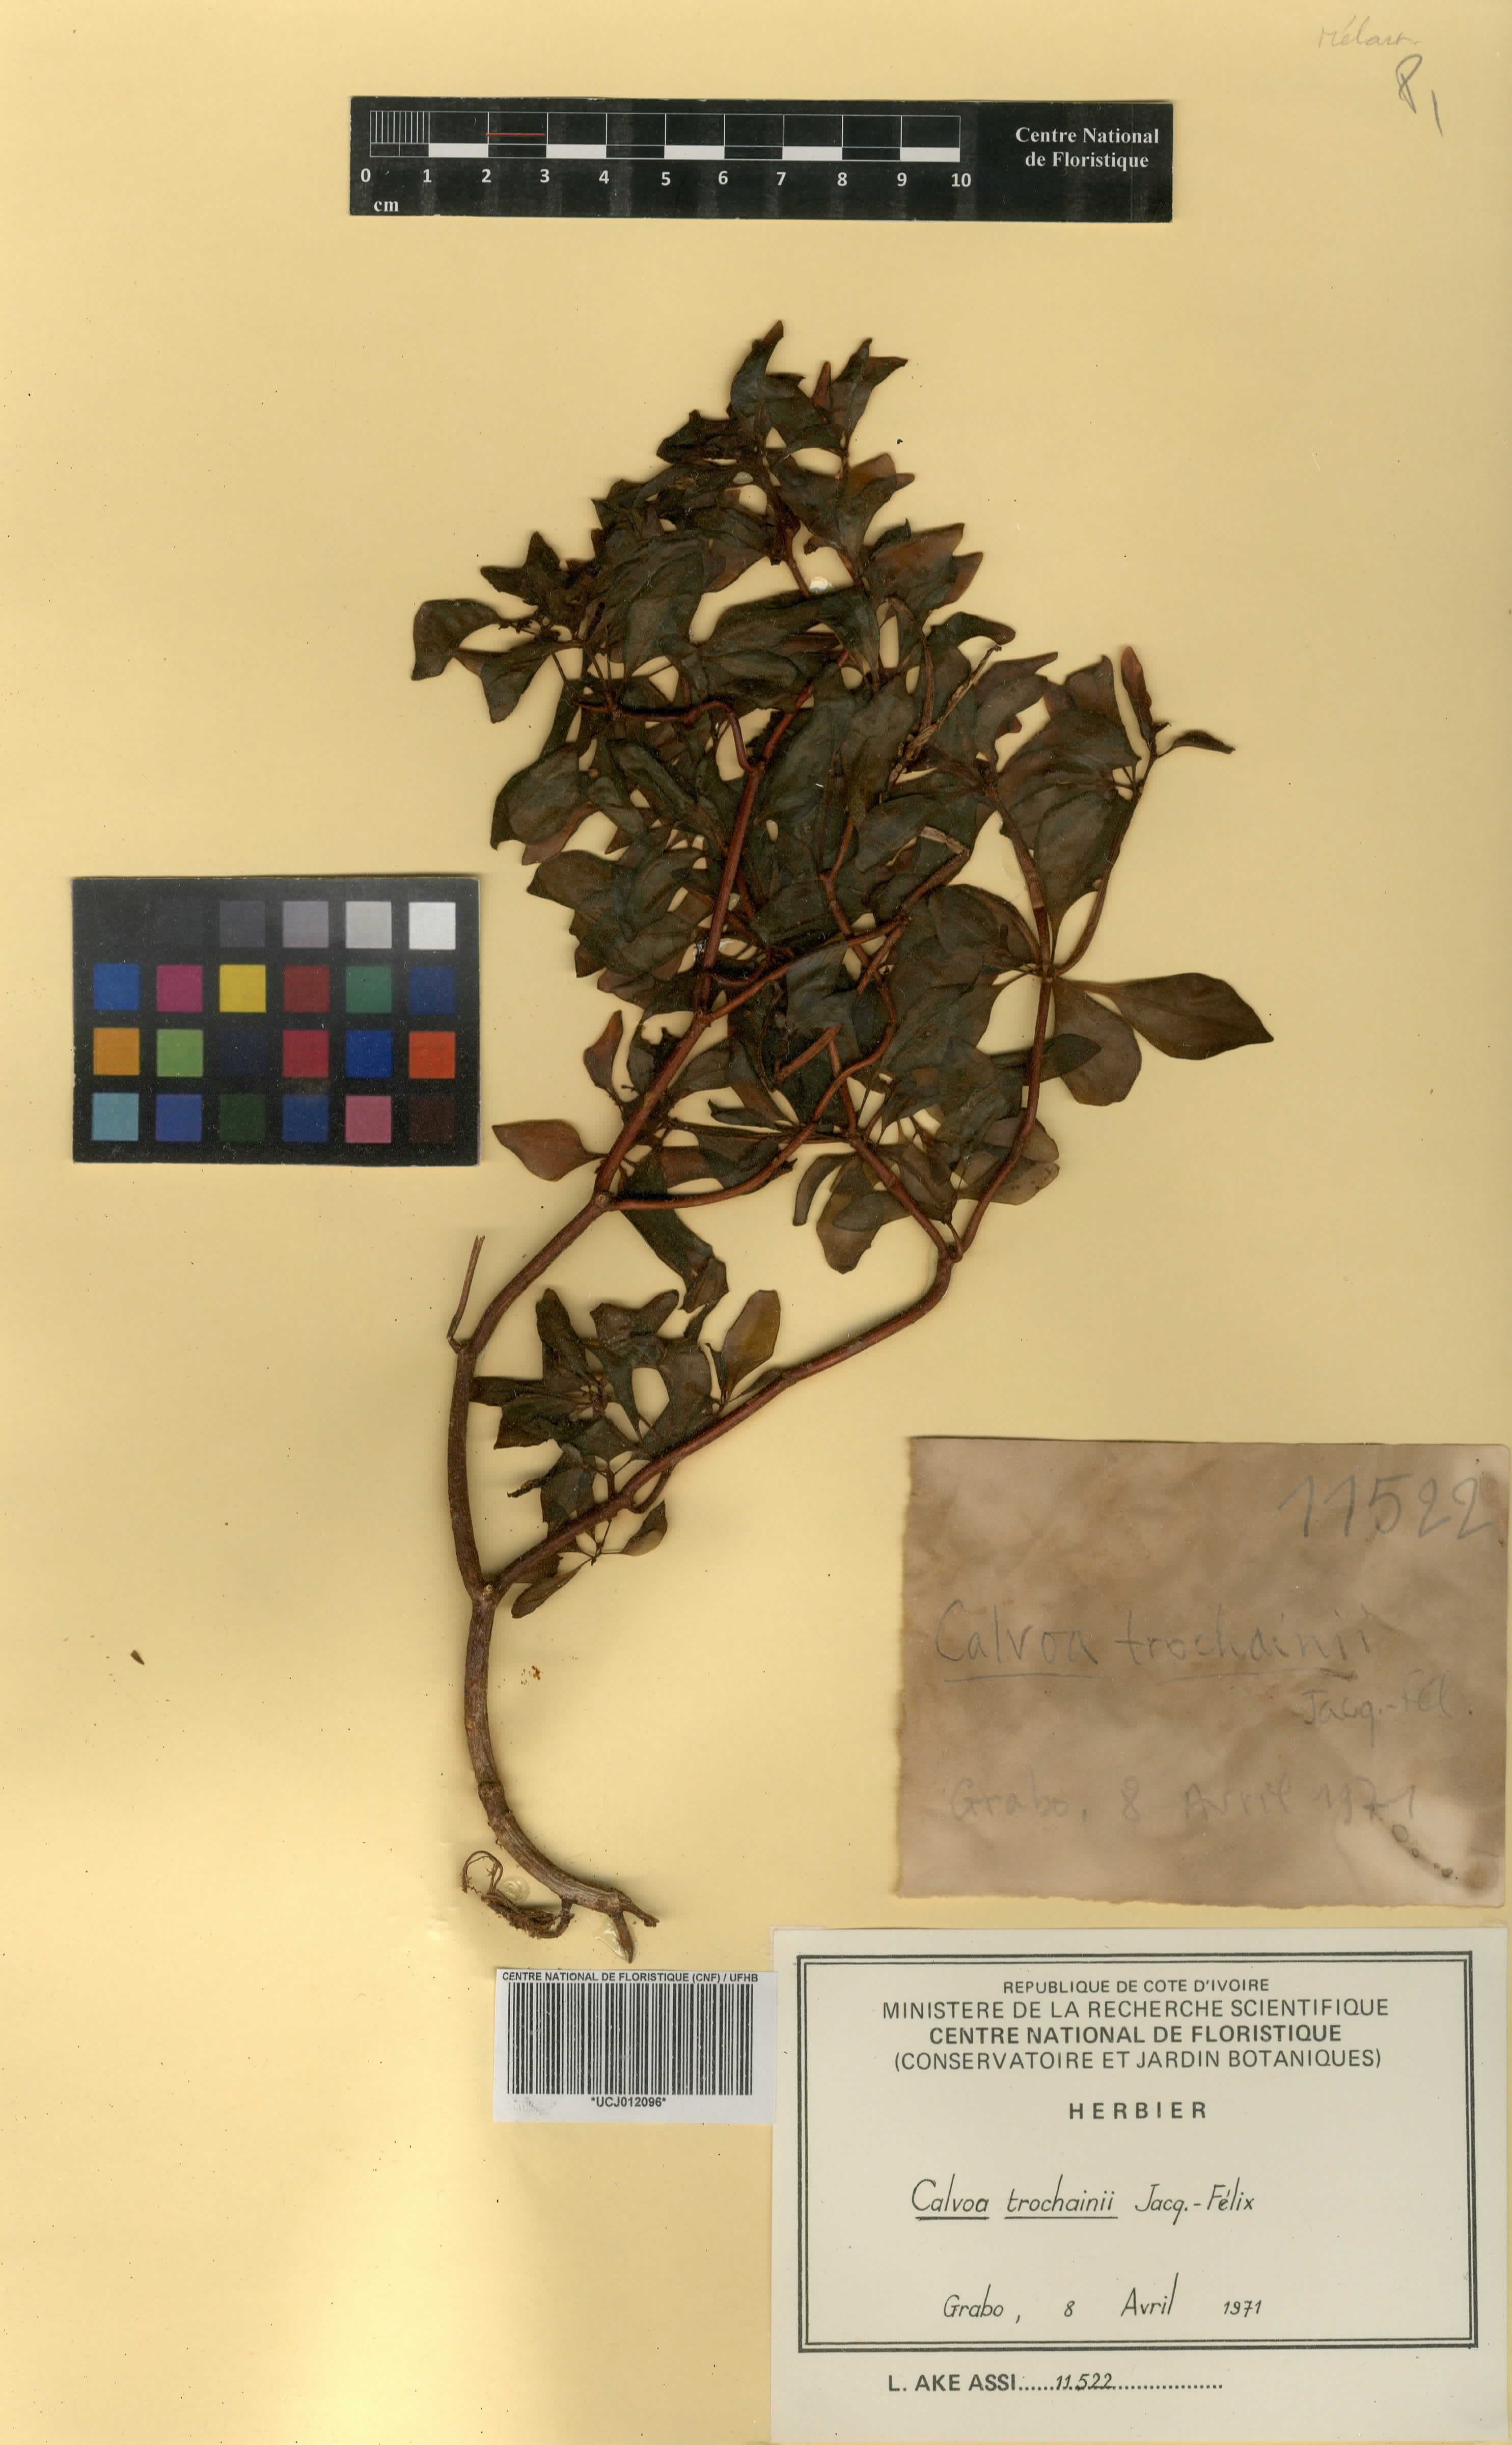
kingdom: Plantae
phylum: Tracheophyta
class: Magnoliopsida
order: Myrtales
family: Melastomataceae
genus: Calvoa
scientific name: Calvoa trochainii
